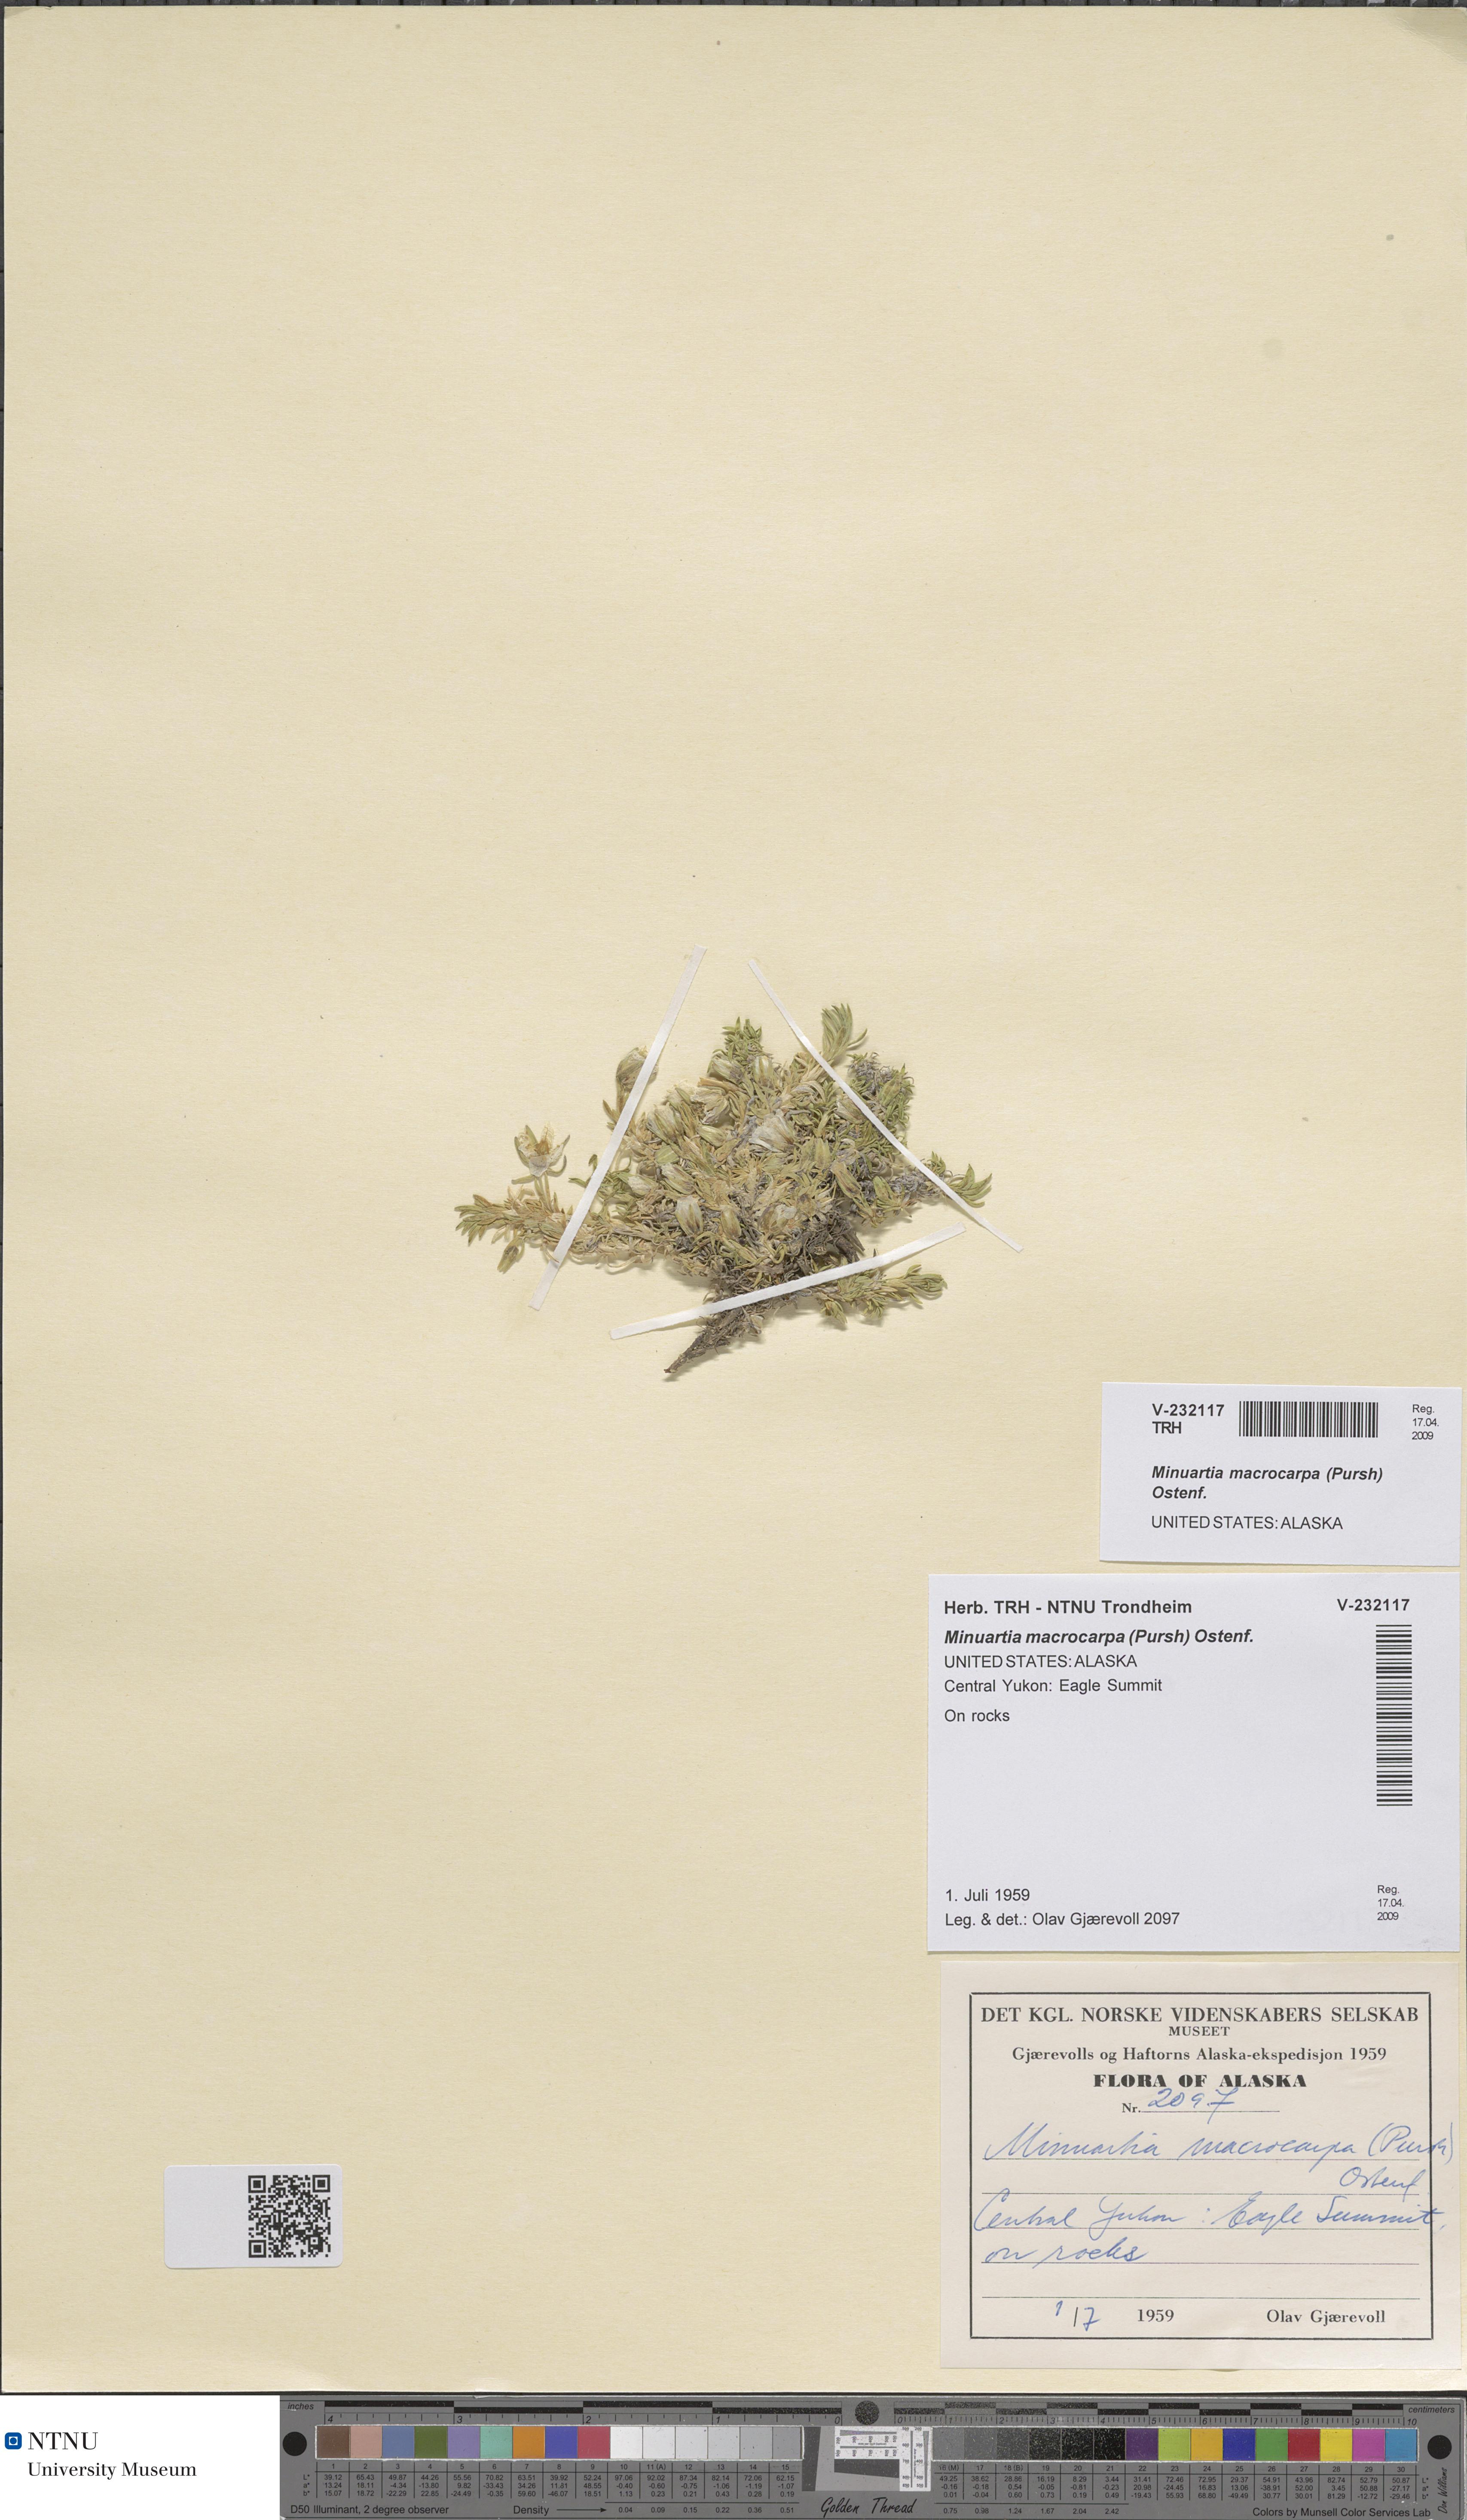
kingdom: Plantae
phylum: Tracheophyta
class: Magnoliopsida
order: Caryophyllales
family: Caryophyllaceae
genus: Pseudocherleria
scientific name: Pseudocherleria macrocarpa
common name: Large-fruit sandwort
